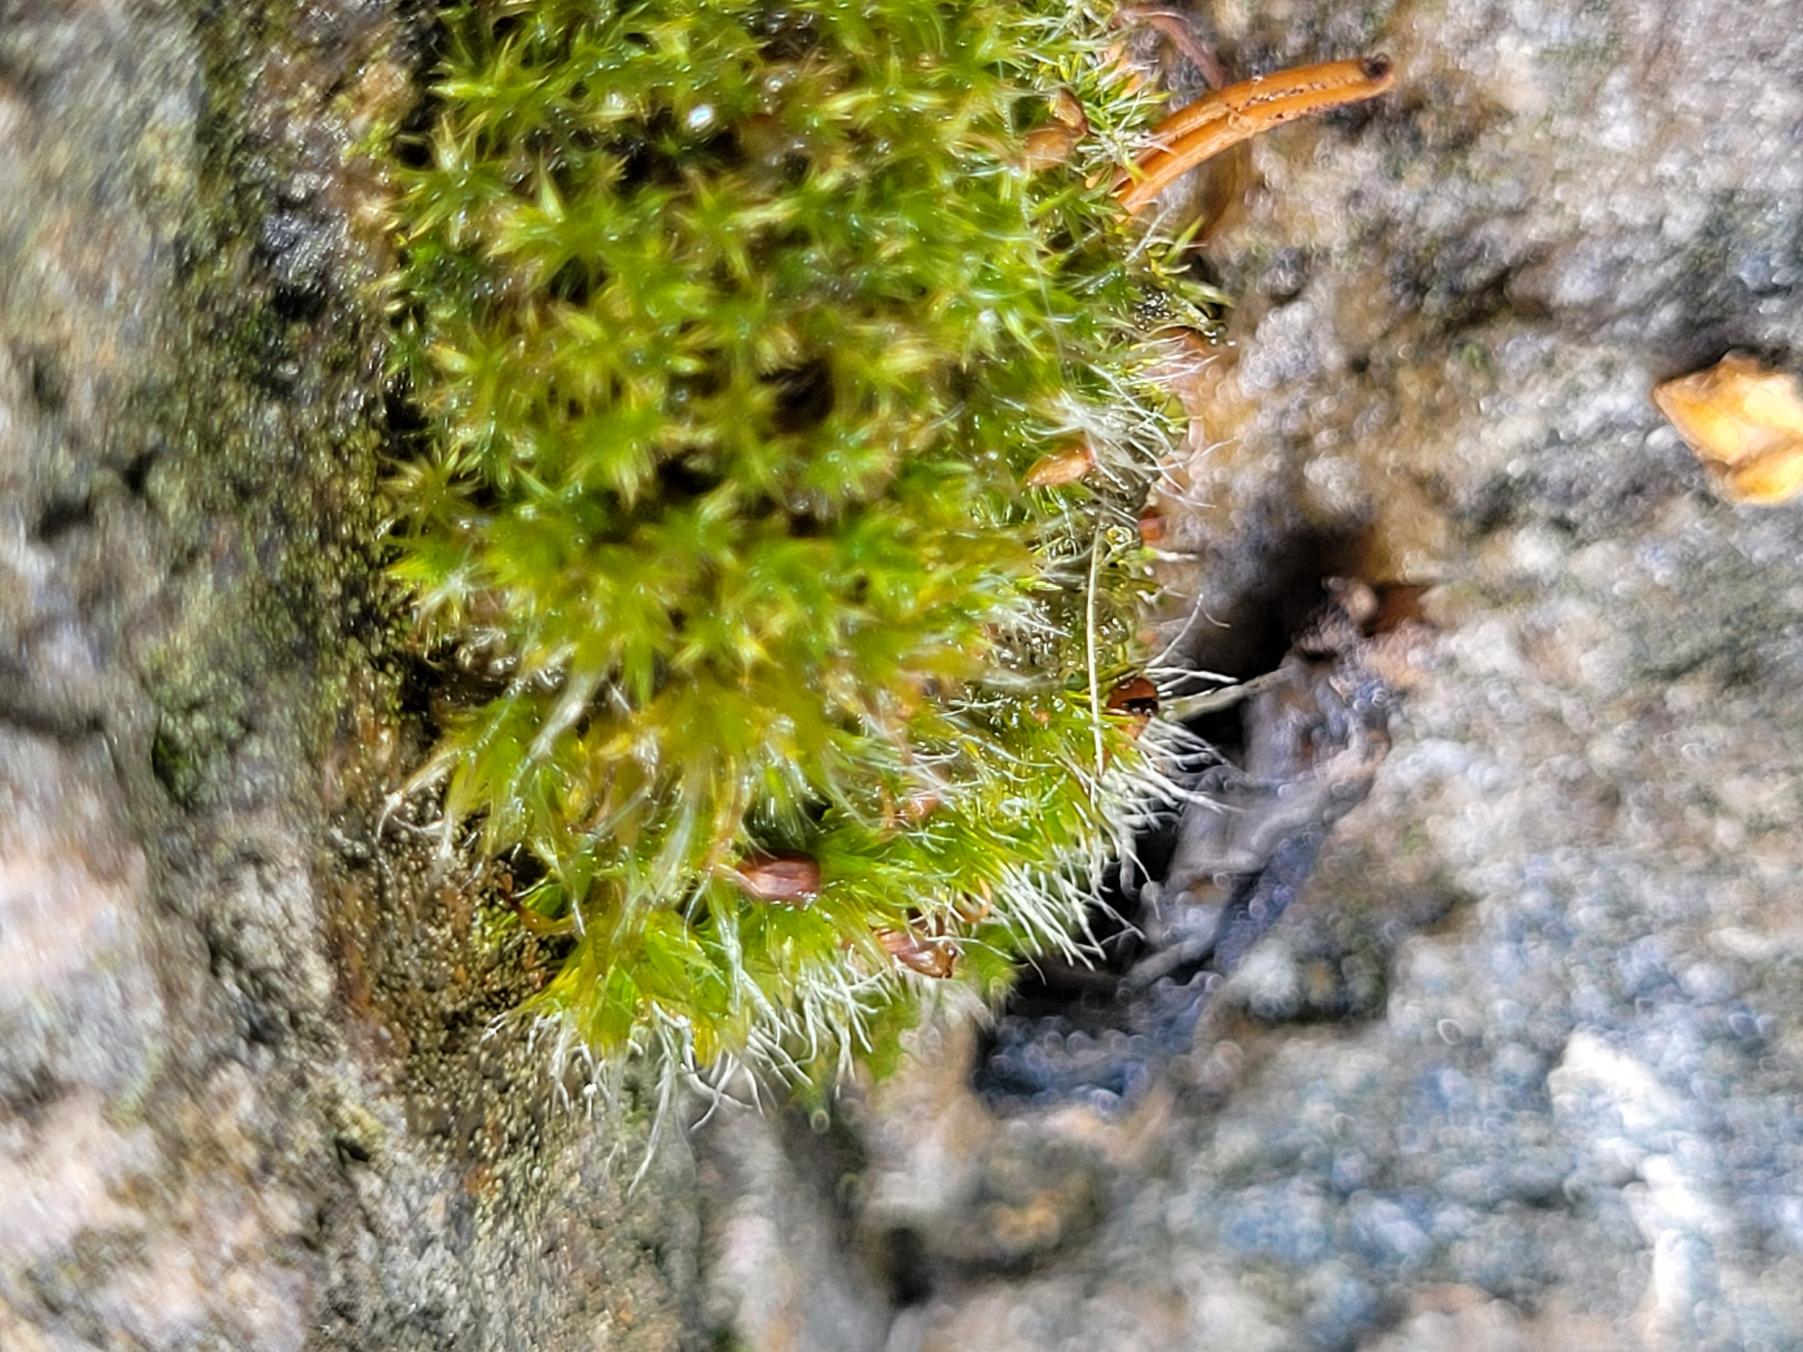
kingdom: Plantae
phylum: Bryophyta
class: Bryopsida
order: Grimmiales
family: Grimmiaceae
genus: Grimmia
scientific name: Grimmia pulvinata
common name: Pude-gråmos
